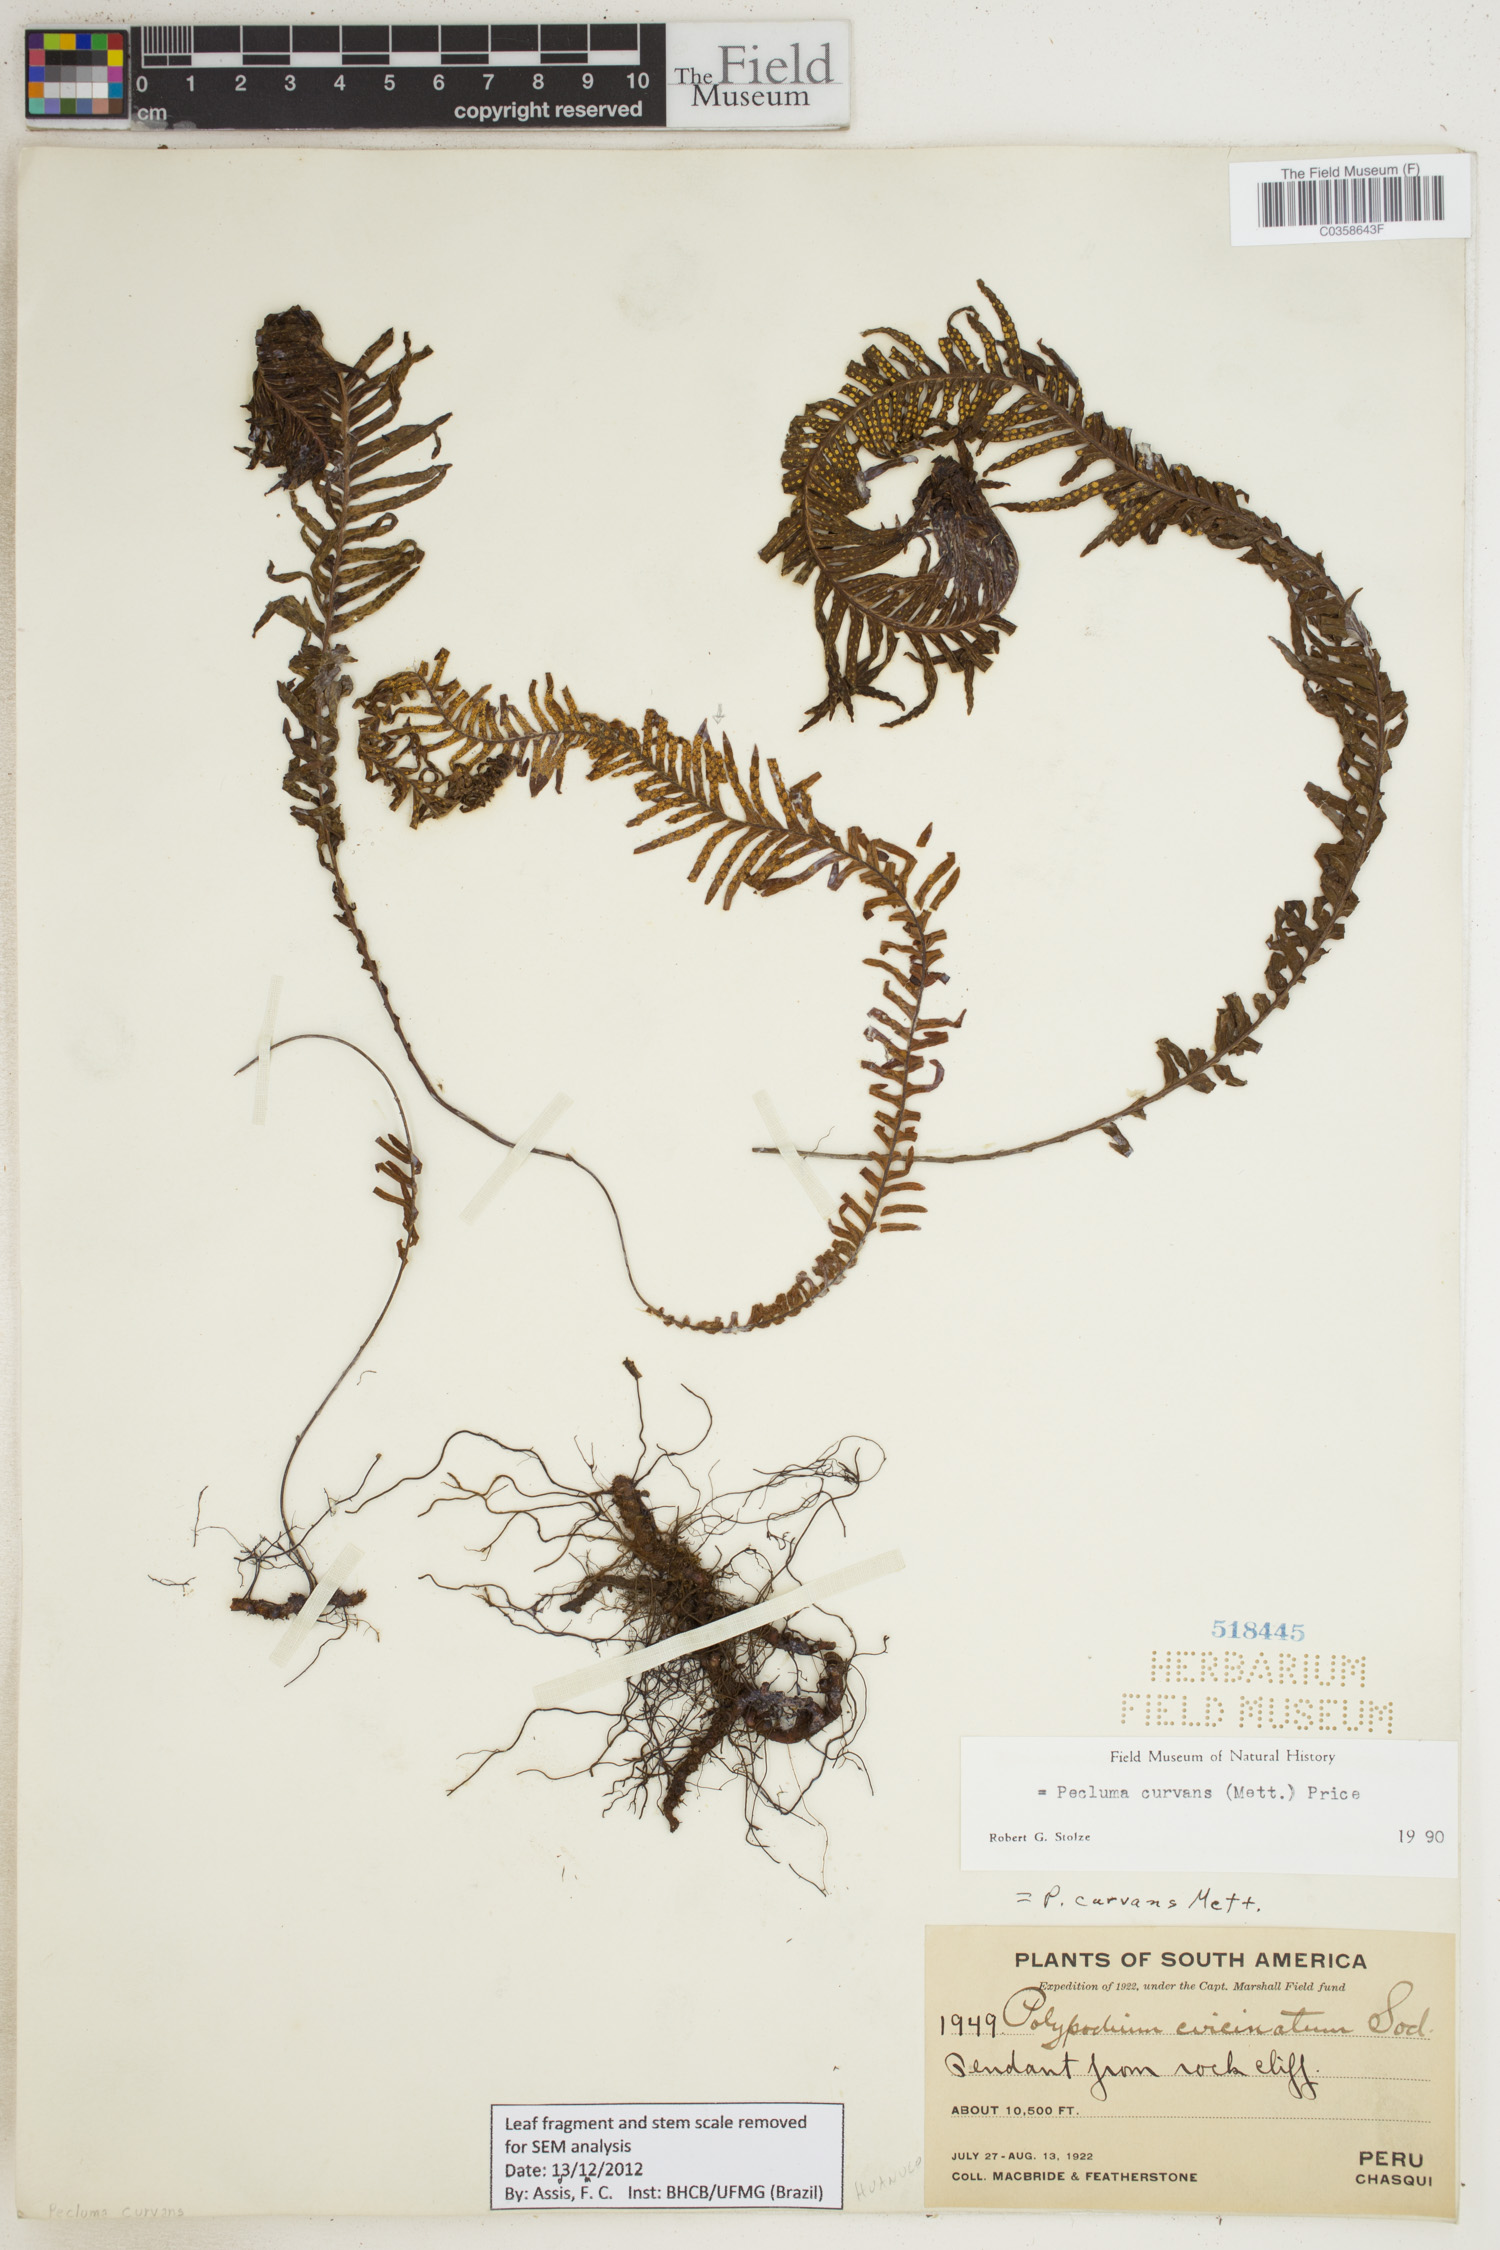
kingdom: Plantae
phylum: Tracheophyta
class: Polypodiopsida
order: Polypodiales
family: Polypodiaceae
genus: Pecluma
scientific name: Pecluma curvans
